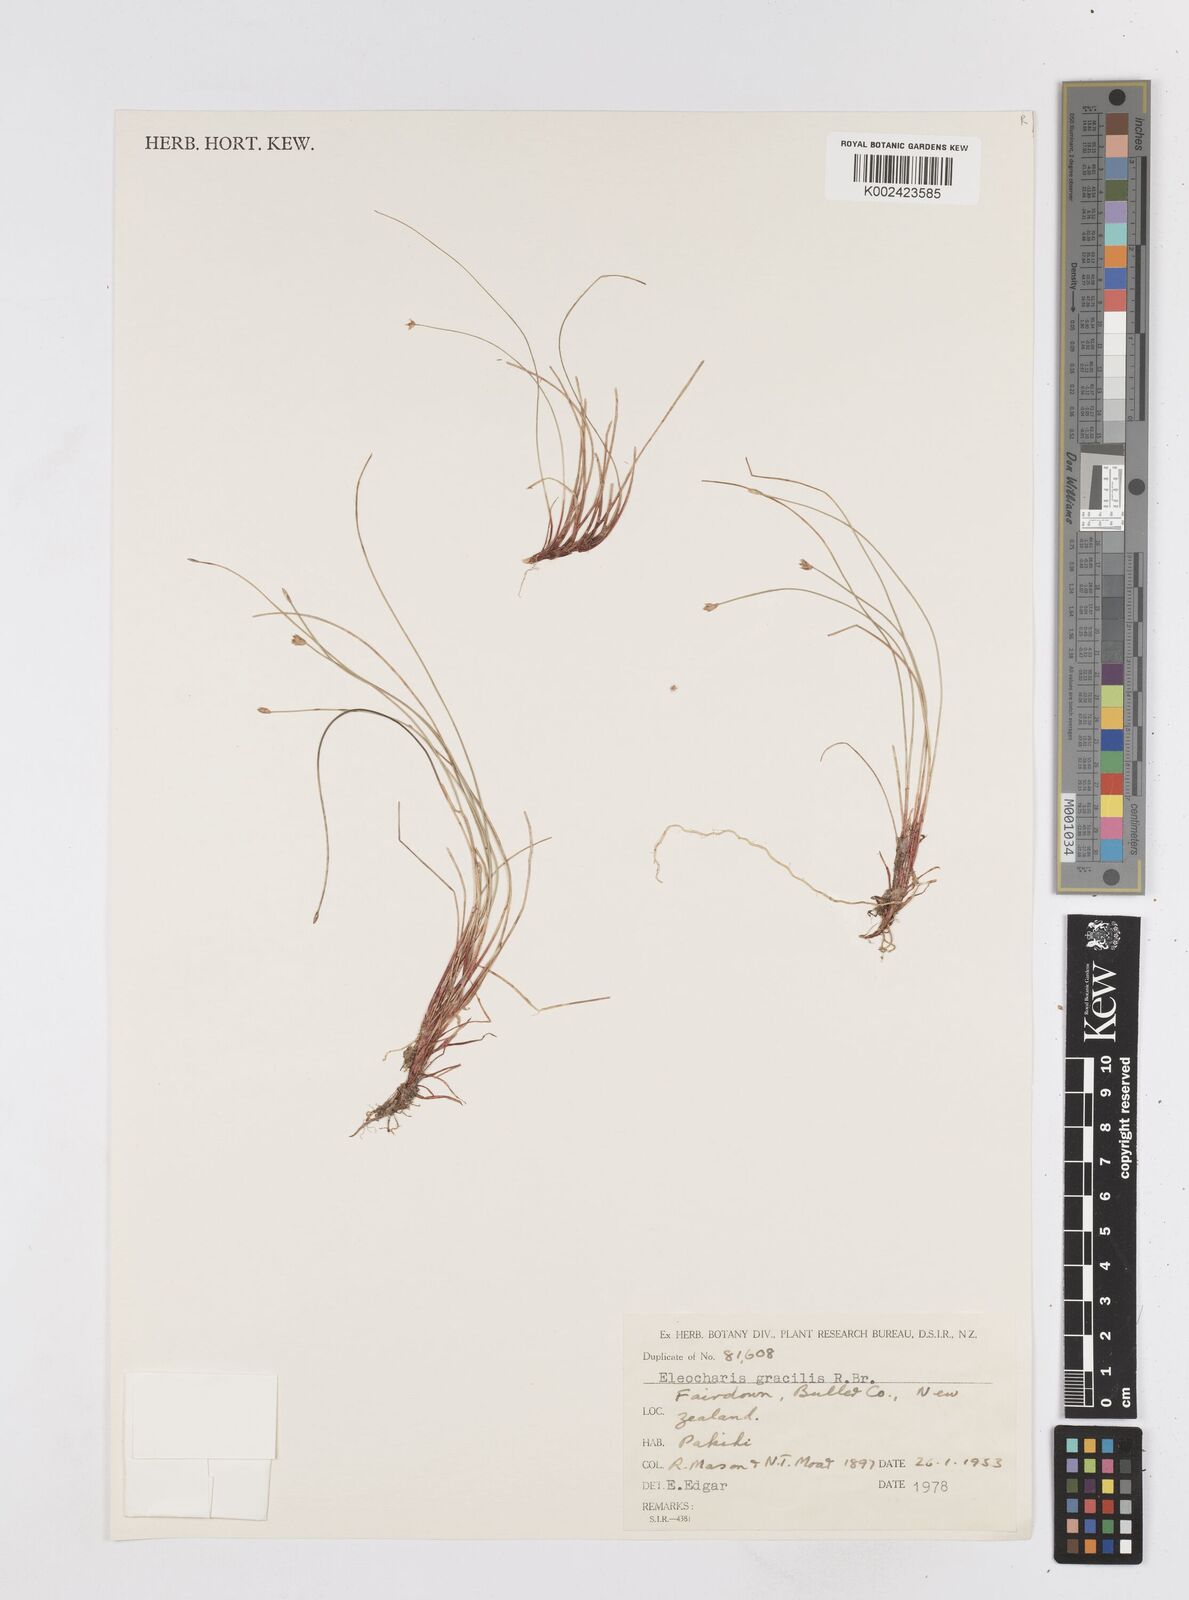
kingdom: Plantae
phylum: Tracheophyta
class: Liliopsida
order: Poales
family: Cyperaceae
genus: Eleocharis
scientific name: Eleocharis gracilis
